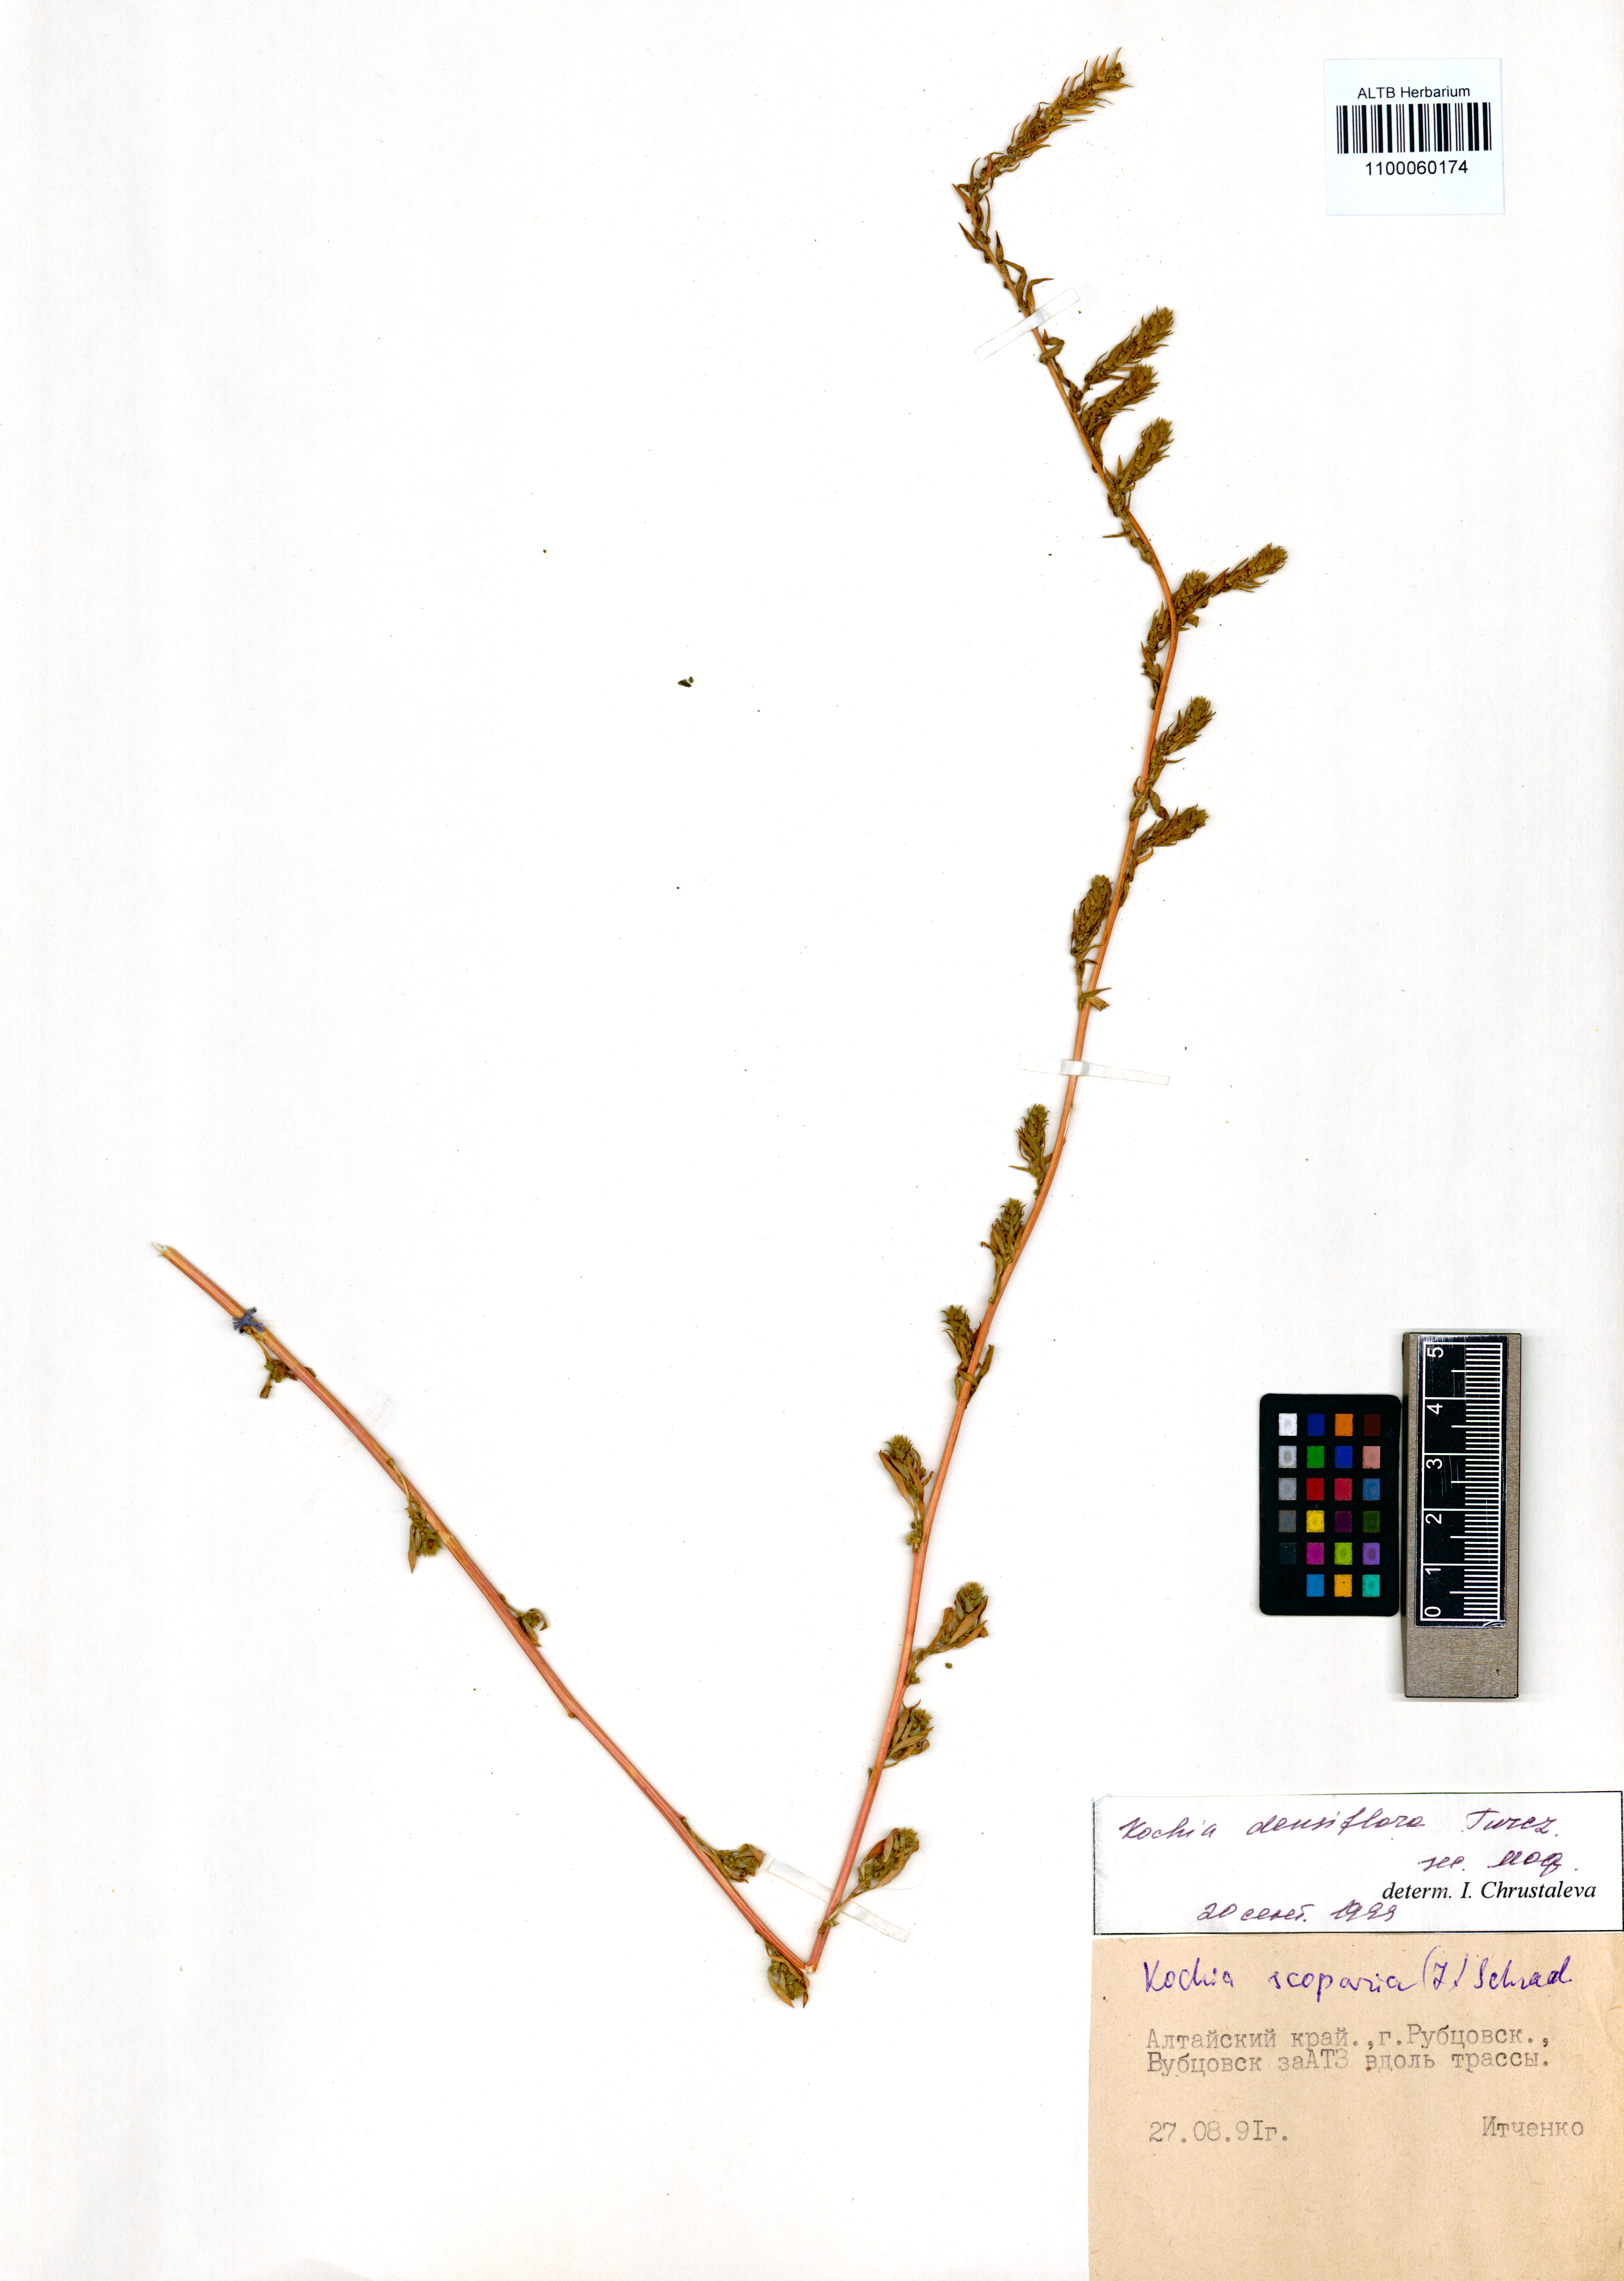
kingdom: Plantae
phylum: Tracheophyta
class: Magnoliopsida
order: Caryophyllales
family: Amaranthaceae
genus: Bassia
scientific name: Bassia scoparia
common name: Belvedere
